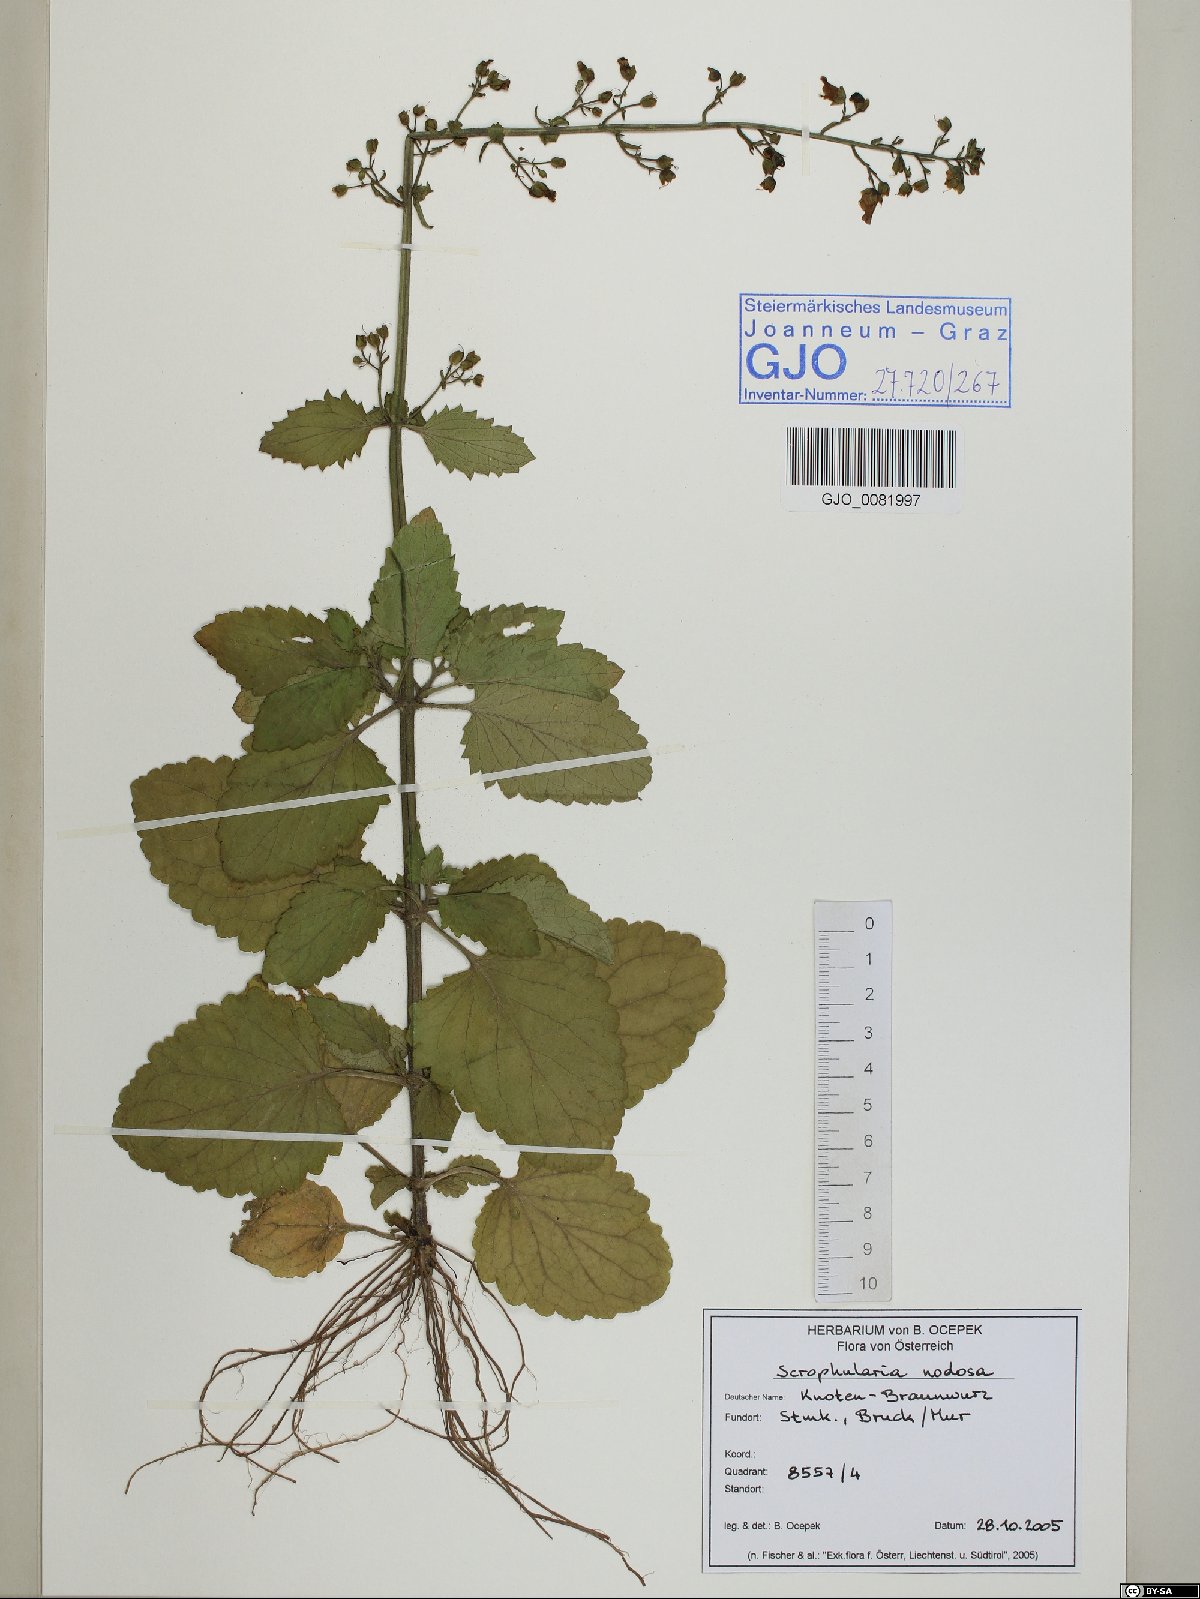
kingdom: Plantae
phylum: Tracheophyta
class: Magnoliopsida
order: Lamiales
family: Scrophulariaceae
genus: Scrophularia
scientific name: Scrophularia nodosa
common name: Common figwort
